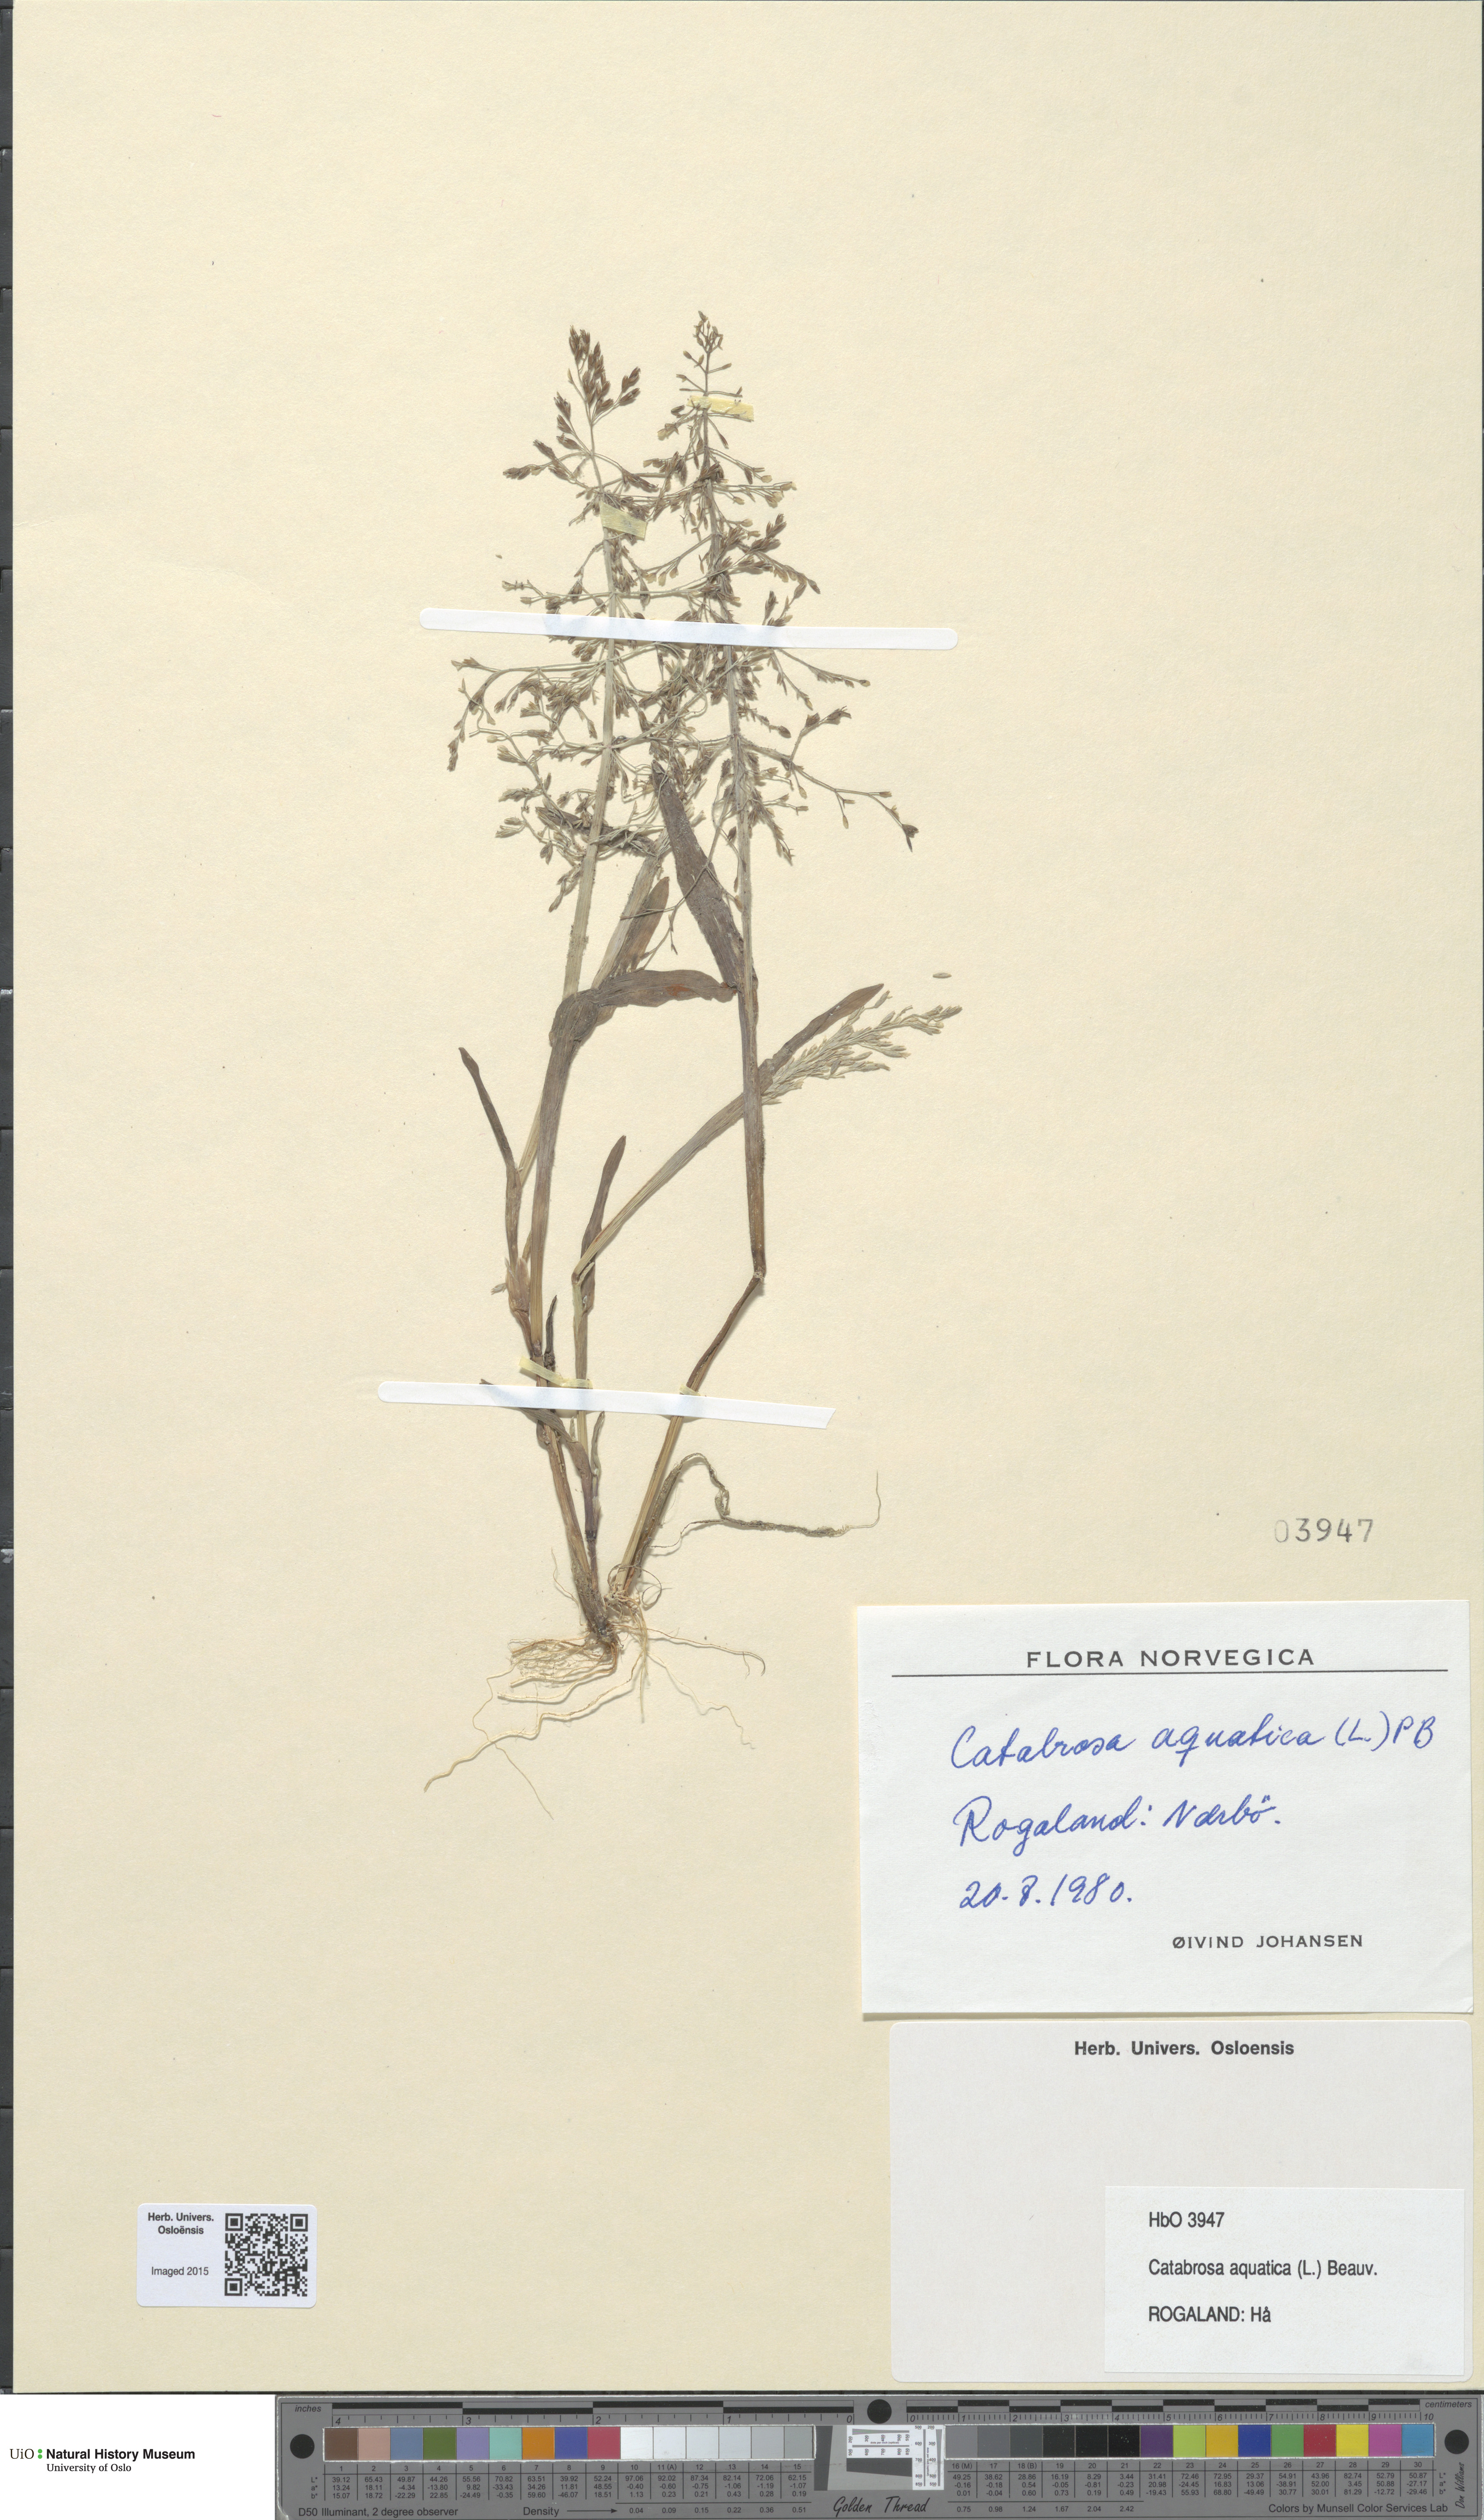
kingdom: Plantae
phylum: Tracheophyta
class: Liliopsida
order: Poales
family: Poaceae
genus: Catabrosa
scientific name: Catabrosa aquatica
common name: Whorl-grass
